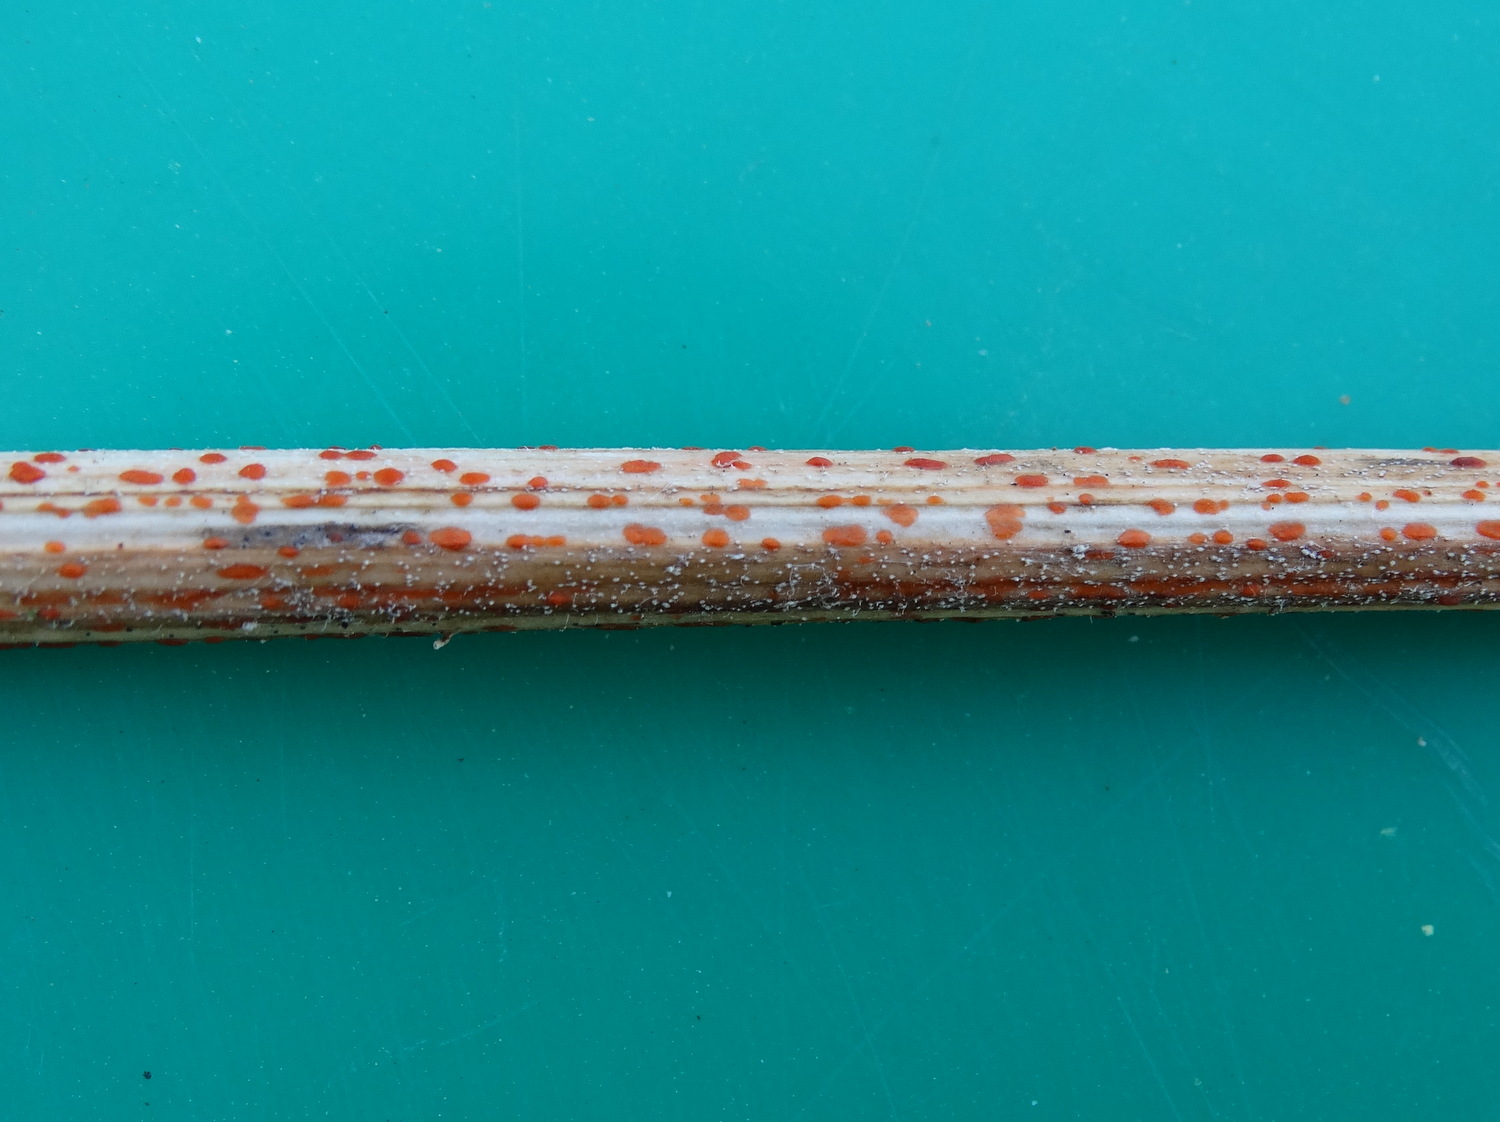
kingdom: Fungi
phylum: Ascomycota
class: Leotiomycetes
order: Helotiales
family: Calloriaceae
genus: Calloria
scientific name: Calloria urticae
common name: nælde-orangeskive
